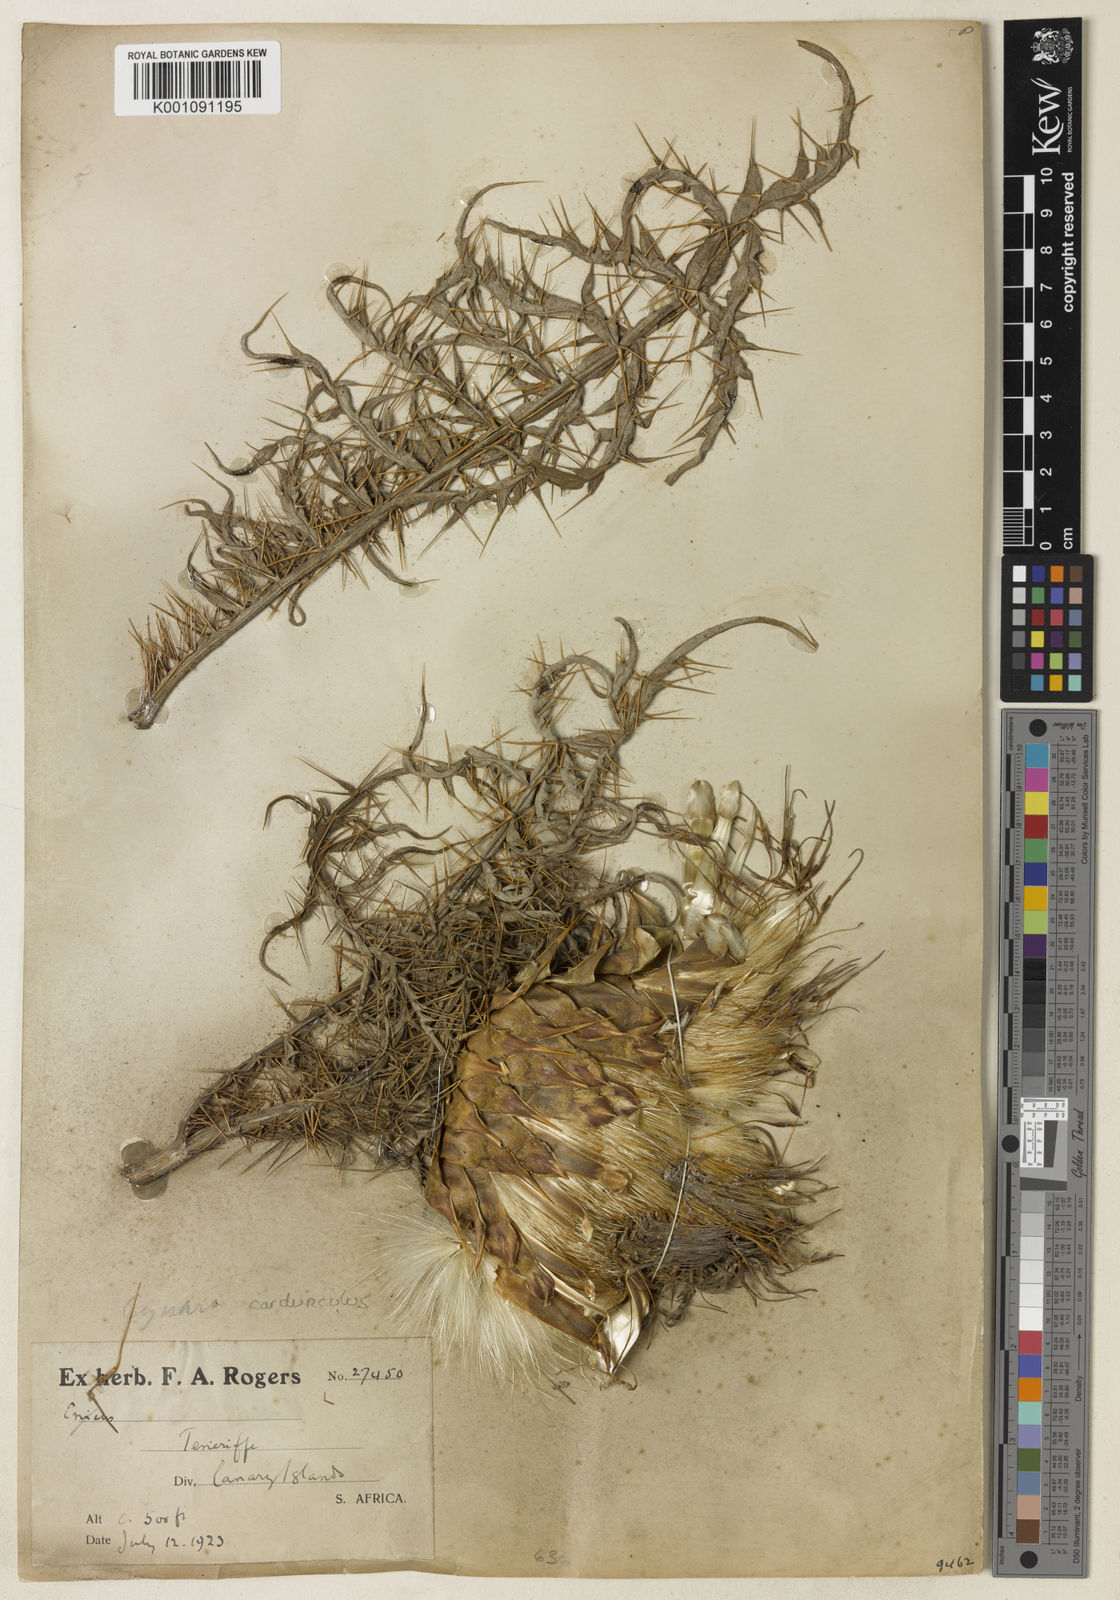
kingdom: Plantae
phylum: Tracheophyta
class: Magnoliopsida
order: Asterales
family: Asteraceae
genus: Cynara
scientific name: Cynara cardunculus
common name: Globe artichoke
